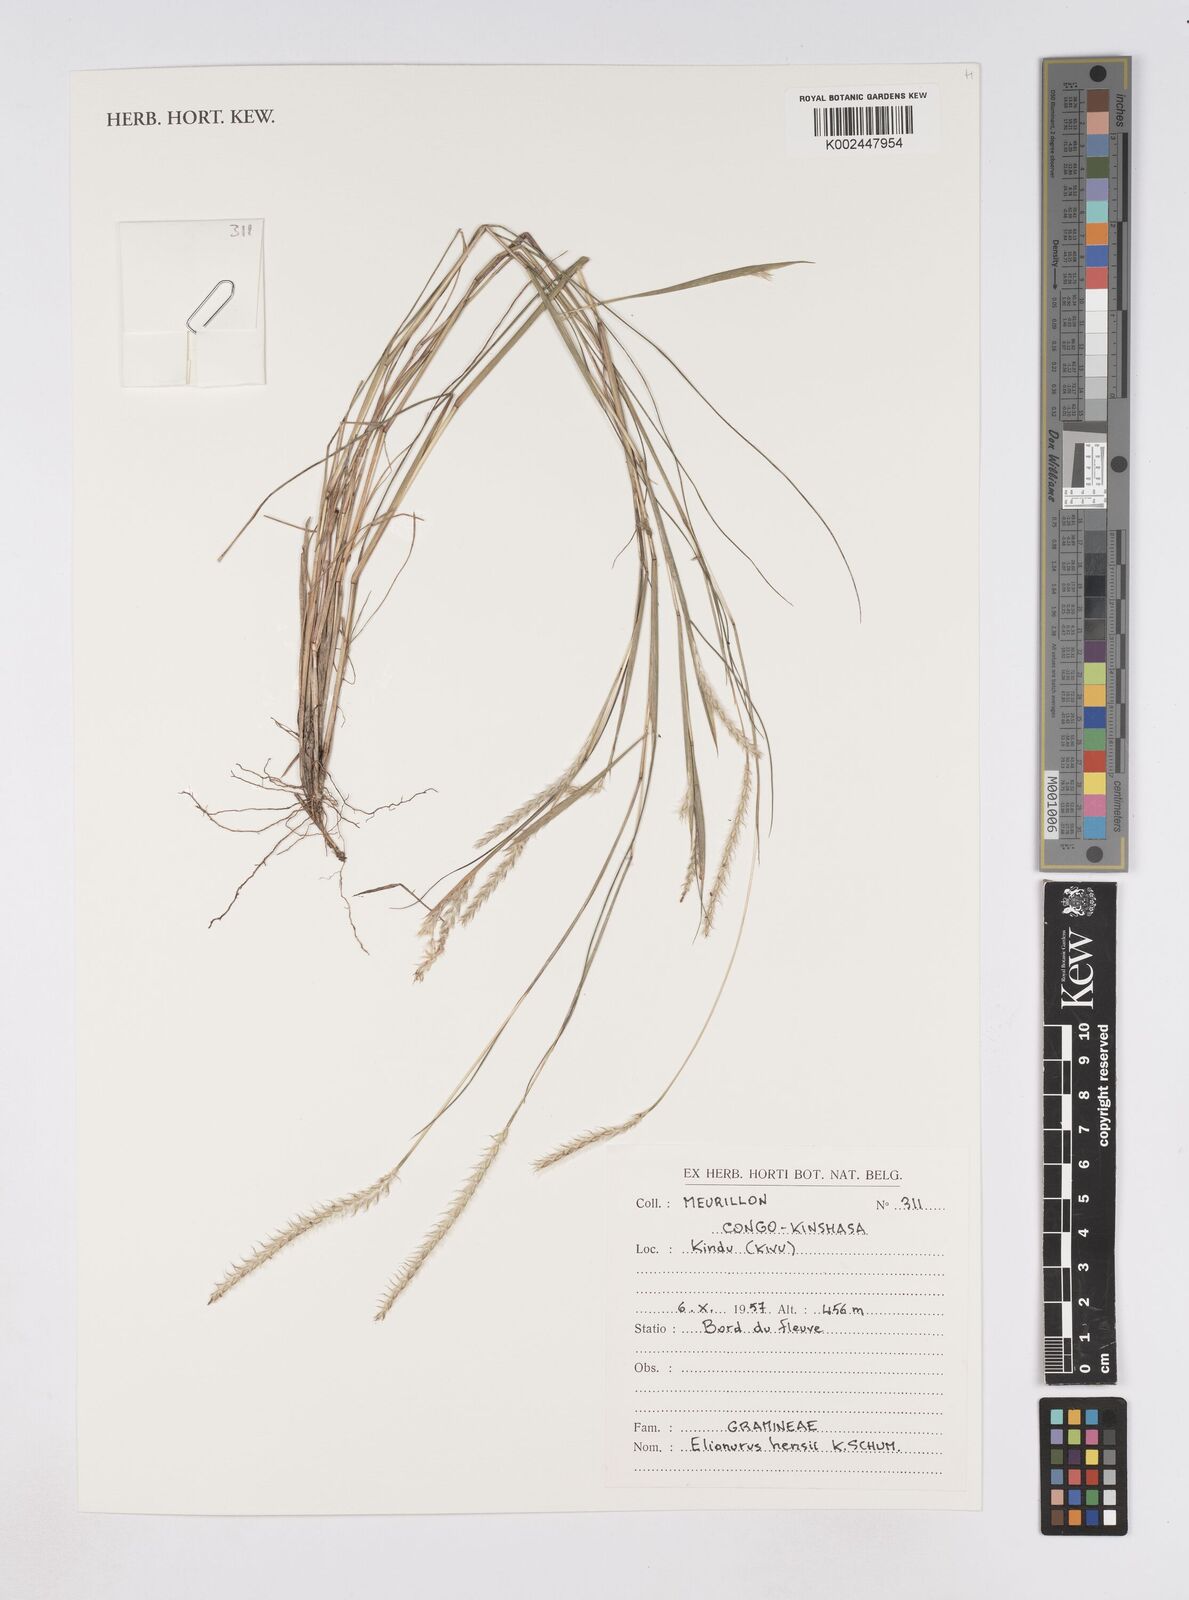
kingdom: Plantae
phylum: Tracheophyta
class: Liliopsida
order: Poales
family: Poaceae
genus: Elionurus
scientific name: Elionurus hensii
